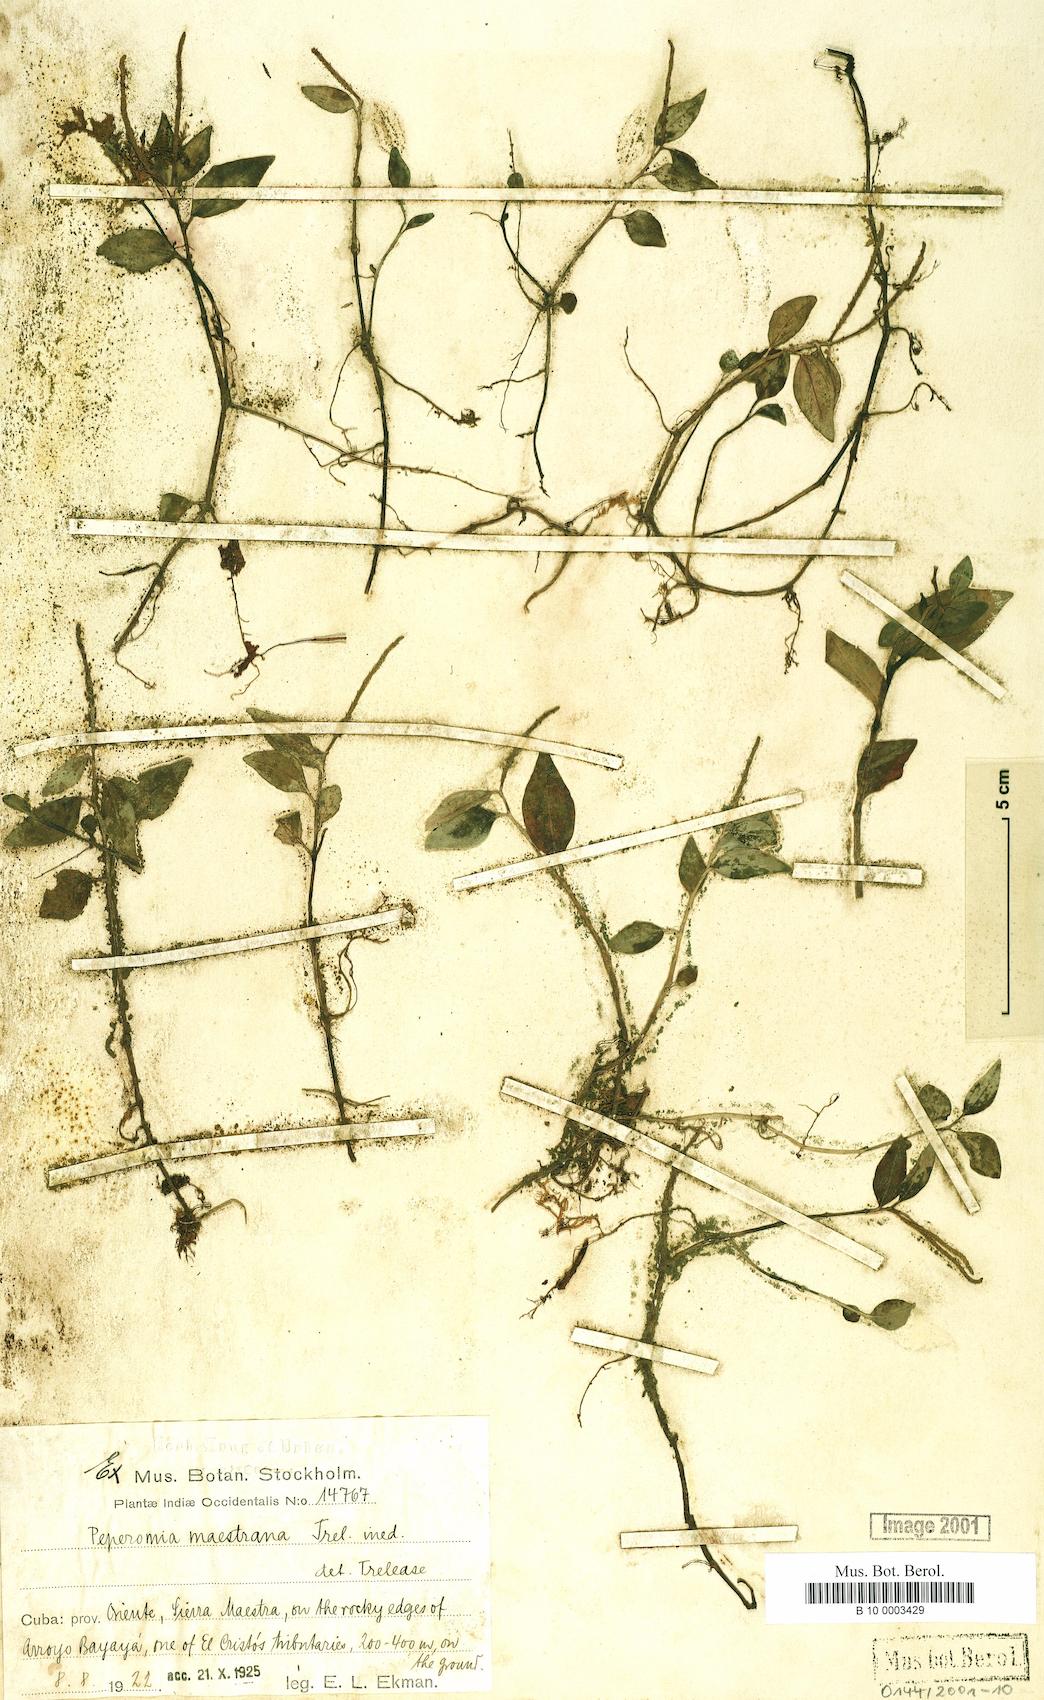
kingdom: Plantae
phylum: Tracheophyta
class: Magnoliopsida
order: Piperales
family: Piperaceae
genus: Peperomia
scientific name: Peperomia maestrana
